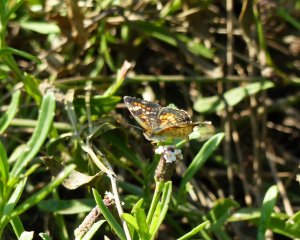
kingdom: Animalia
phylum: Arthropoda
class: Insecta
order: Lepidoptera
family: Nymphalidae
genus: Phyciodes
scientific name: Phyciodes phaon
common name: Phaon Crescent
